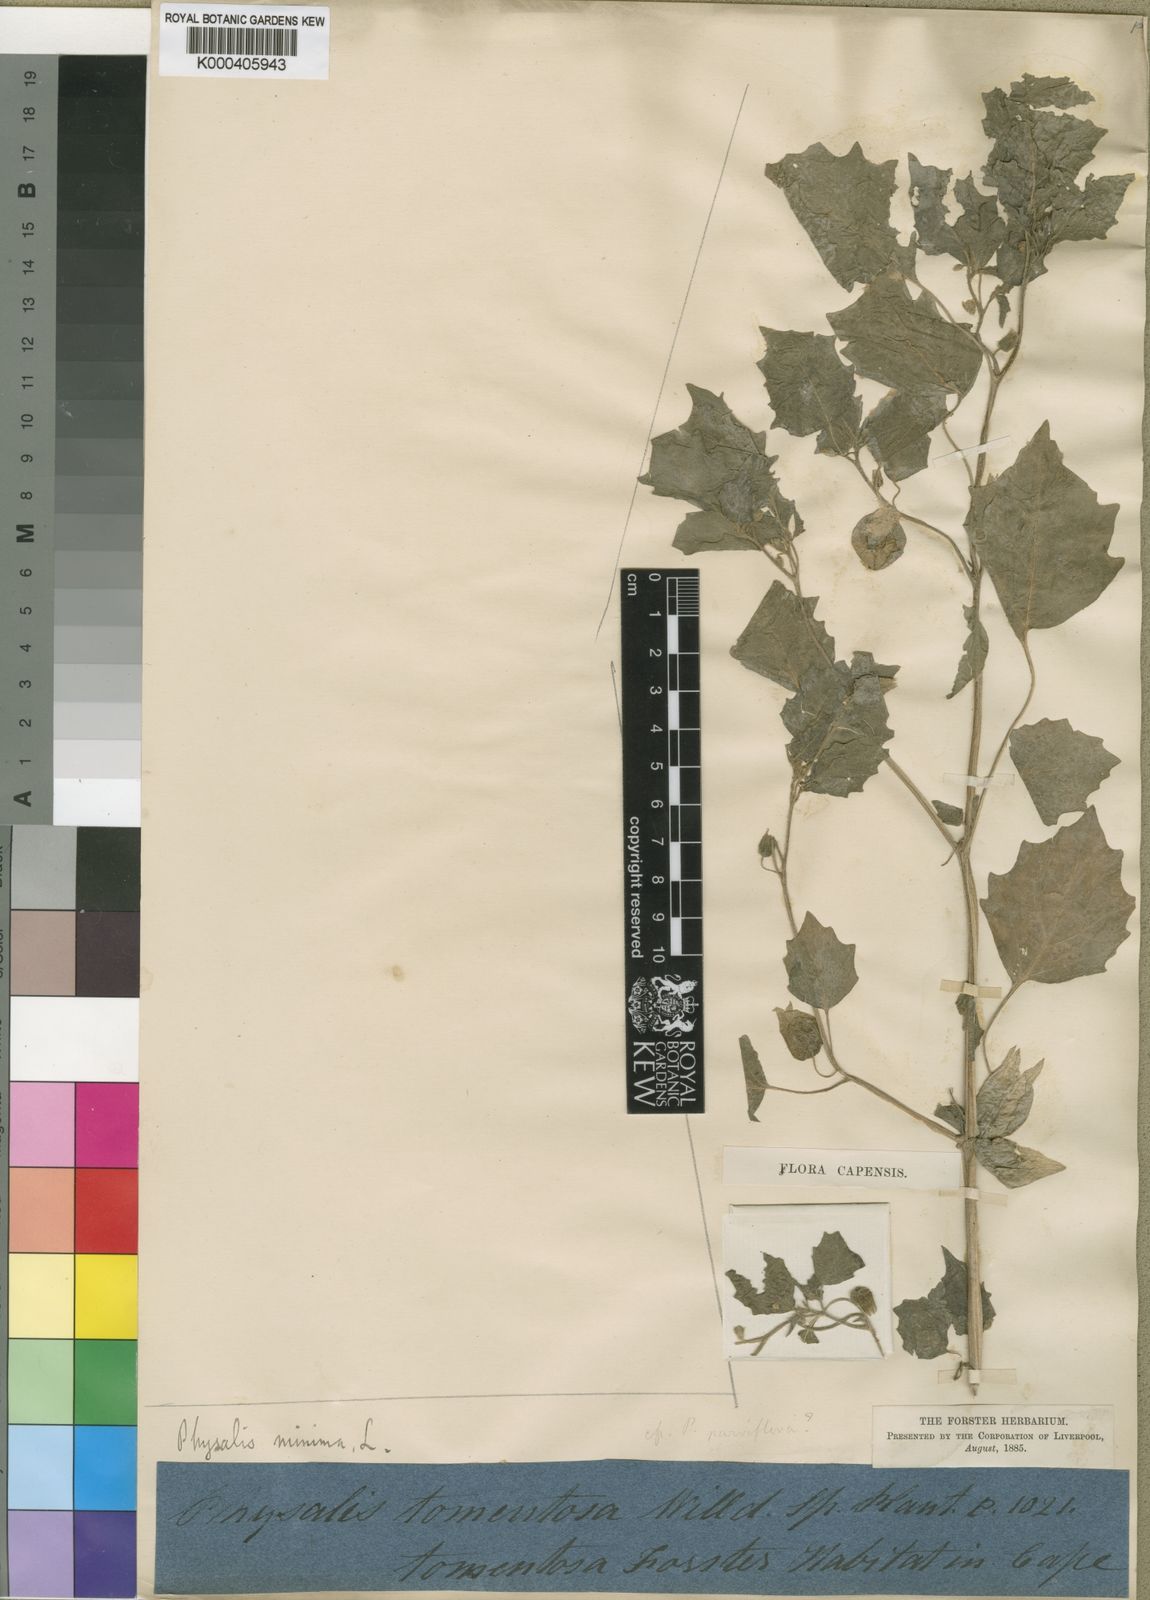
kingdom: Plantae
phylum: Tracheophyta
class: Magnoliopsida
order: Solanales
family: Solanaceae
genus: Physalis
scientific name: Physalis peruviana
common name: Cape-gooseberry
